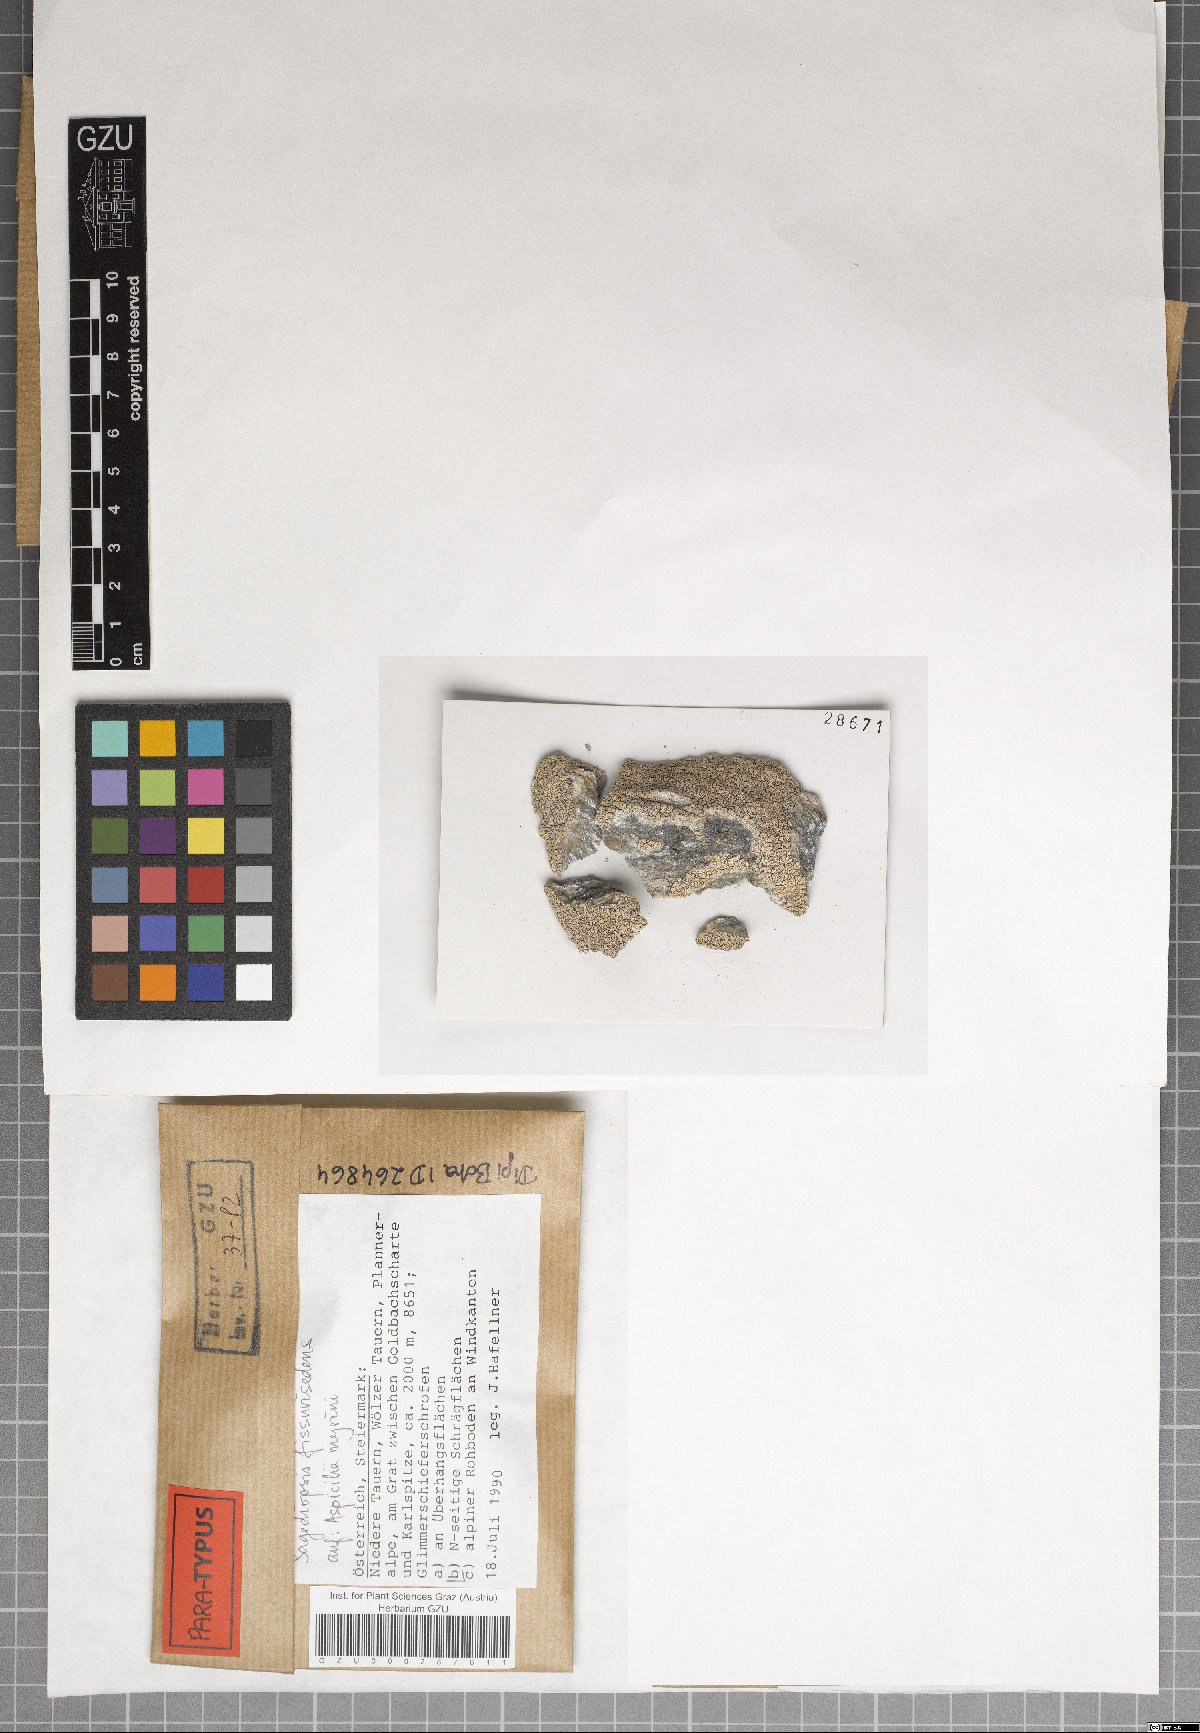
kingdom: Fungi
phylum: Ascomycota
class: Eurotiomycetes
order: Verrucariales
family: Adelococcaceae
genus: Sagediopsis
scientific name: Sagediopsis fissurisedens
